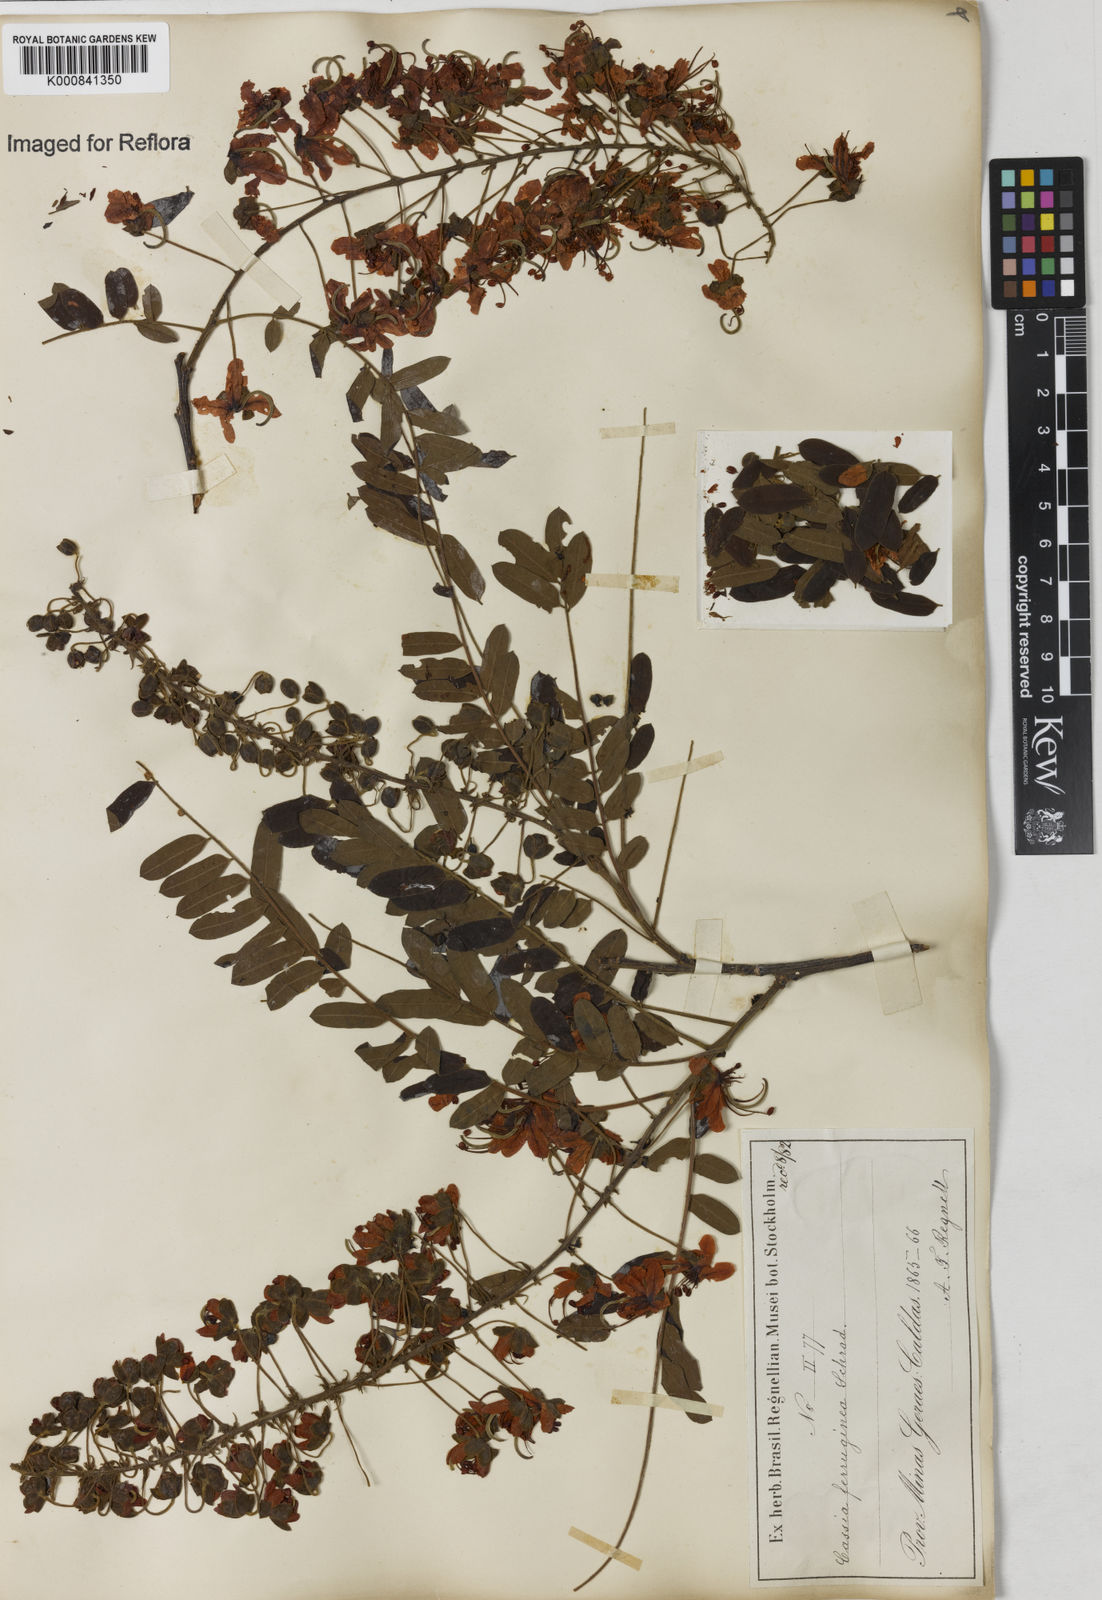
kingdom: Plantae
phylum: Tracheophyta
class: Magnoliopsida
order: Fabales
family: Fabaceae
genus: Cassia
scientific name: Cassia ferruginea
